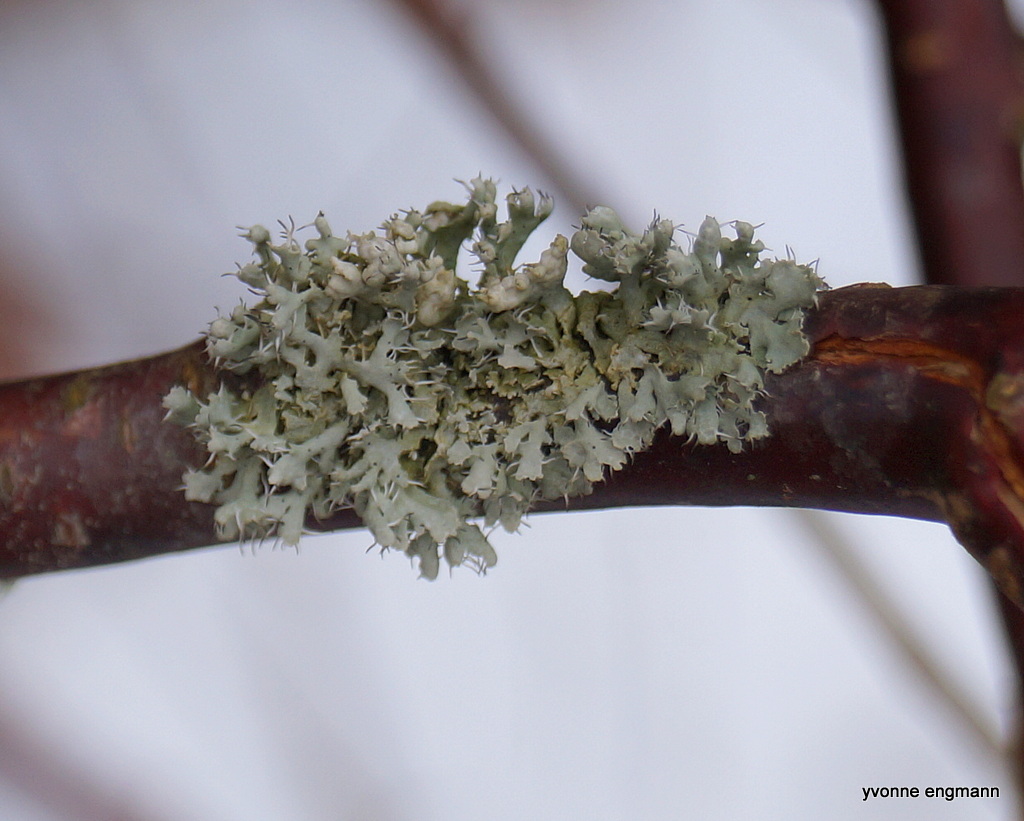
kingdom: Fungi
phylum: Ascomycota
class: Lecanoromycetes
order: Caliciales
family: Physciaceae
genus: Physcia
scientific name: Physcia adscendens
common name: hætte-rosetlav
